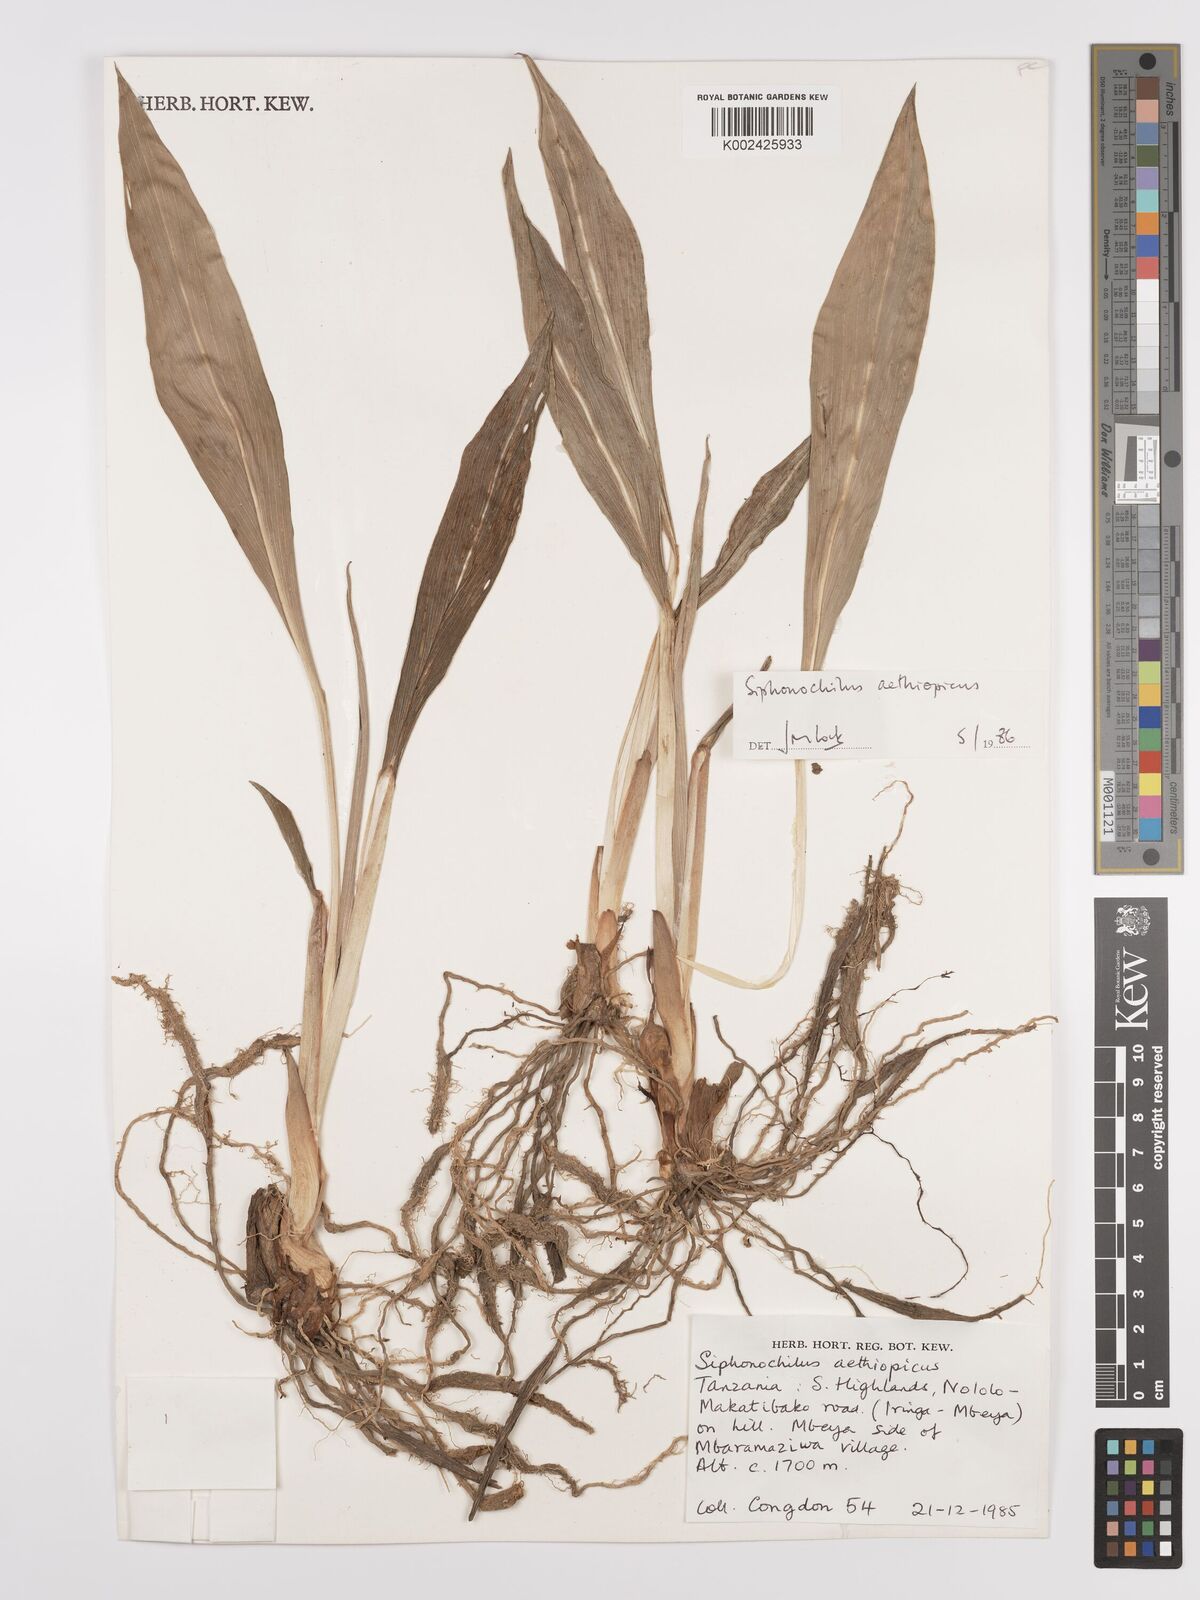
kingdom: Plantae
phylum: Tracheophyta
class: Liliopsida
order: Zingiberales
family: Zingiberaceae
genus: Siphonochilus
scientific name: Siphonochilus aethiopicus
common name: African-ginger
